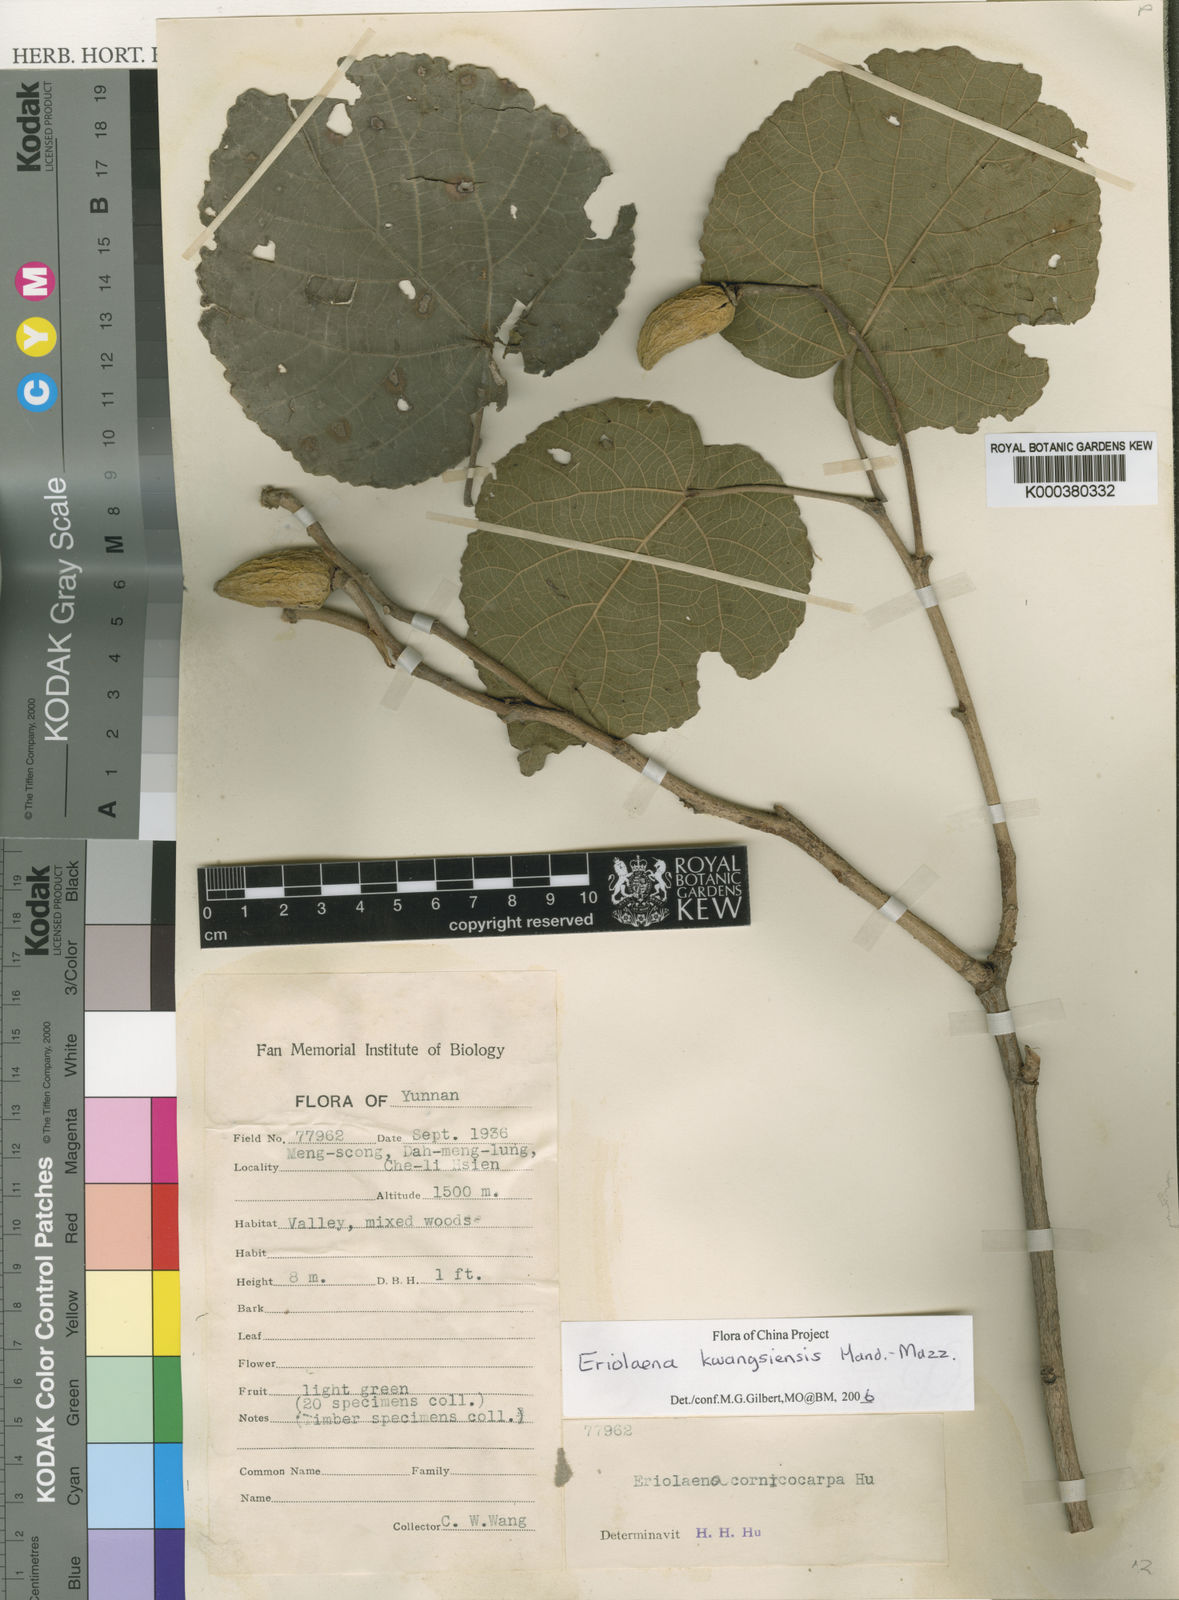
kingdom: Plantae
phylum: Tracheophyta
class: Magnoliopsida
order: Malvales
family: Malvaceae
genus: Eriolaena
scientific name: Eriolaena candollei
